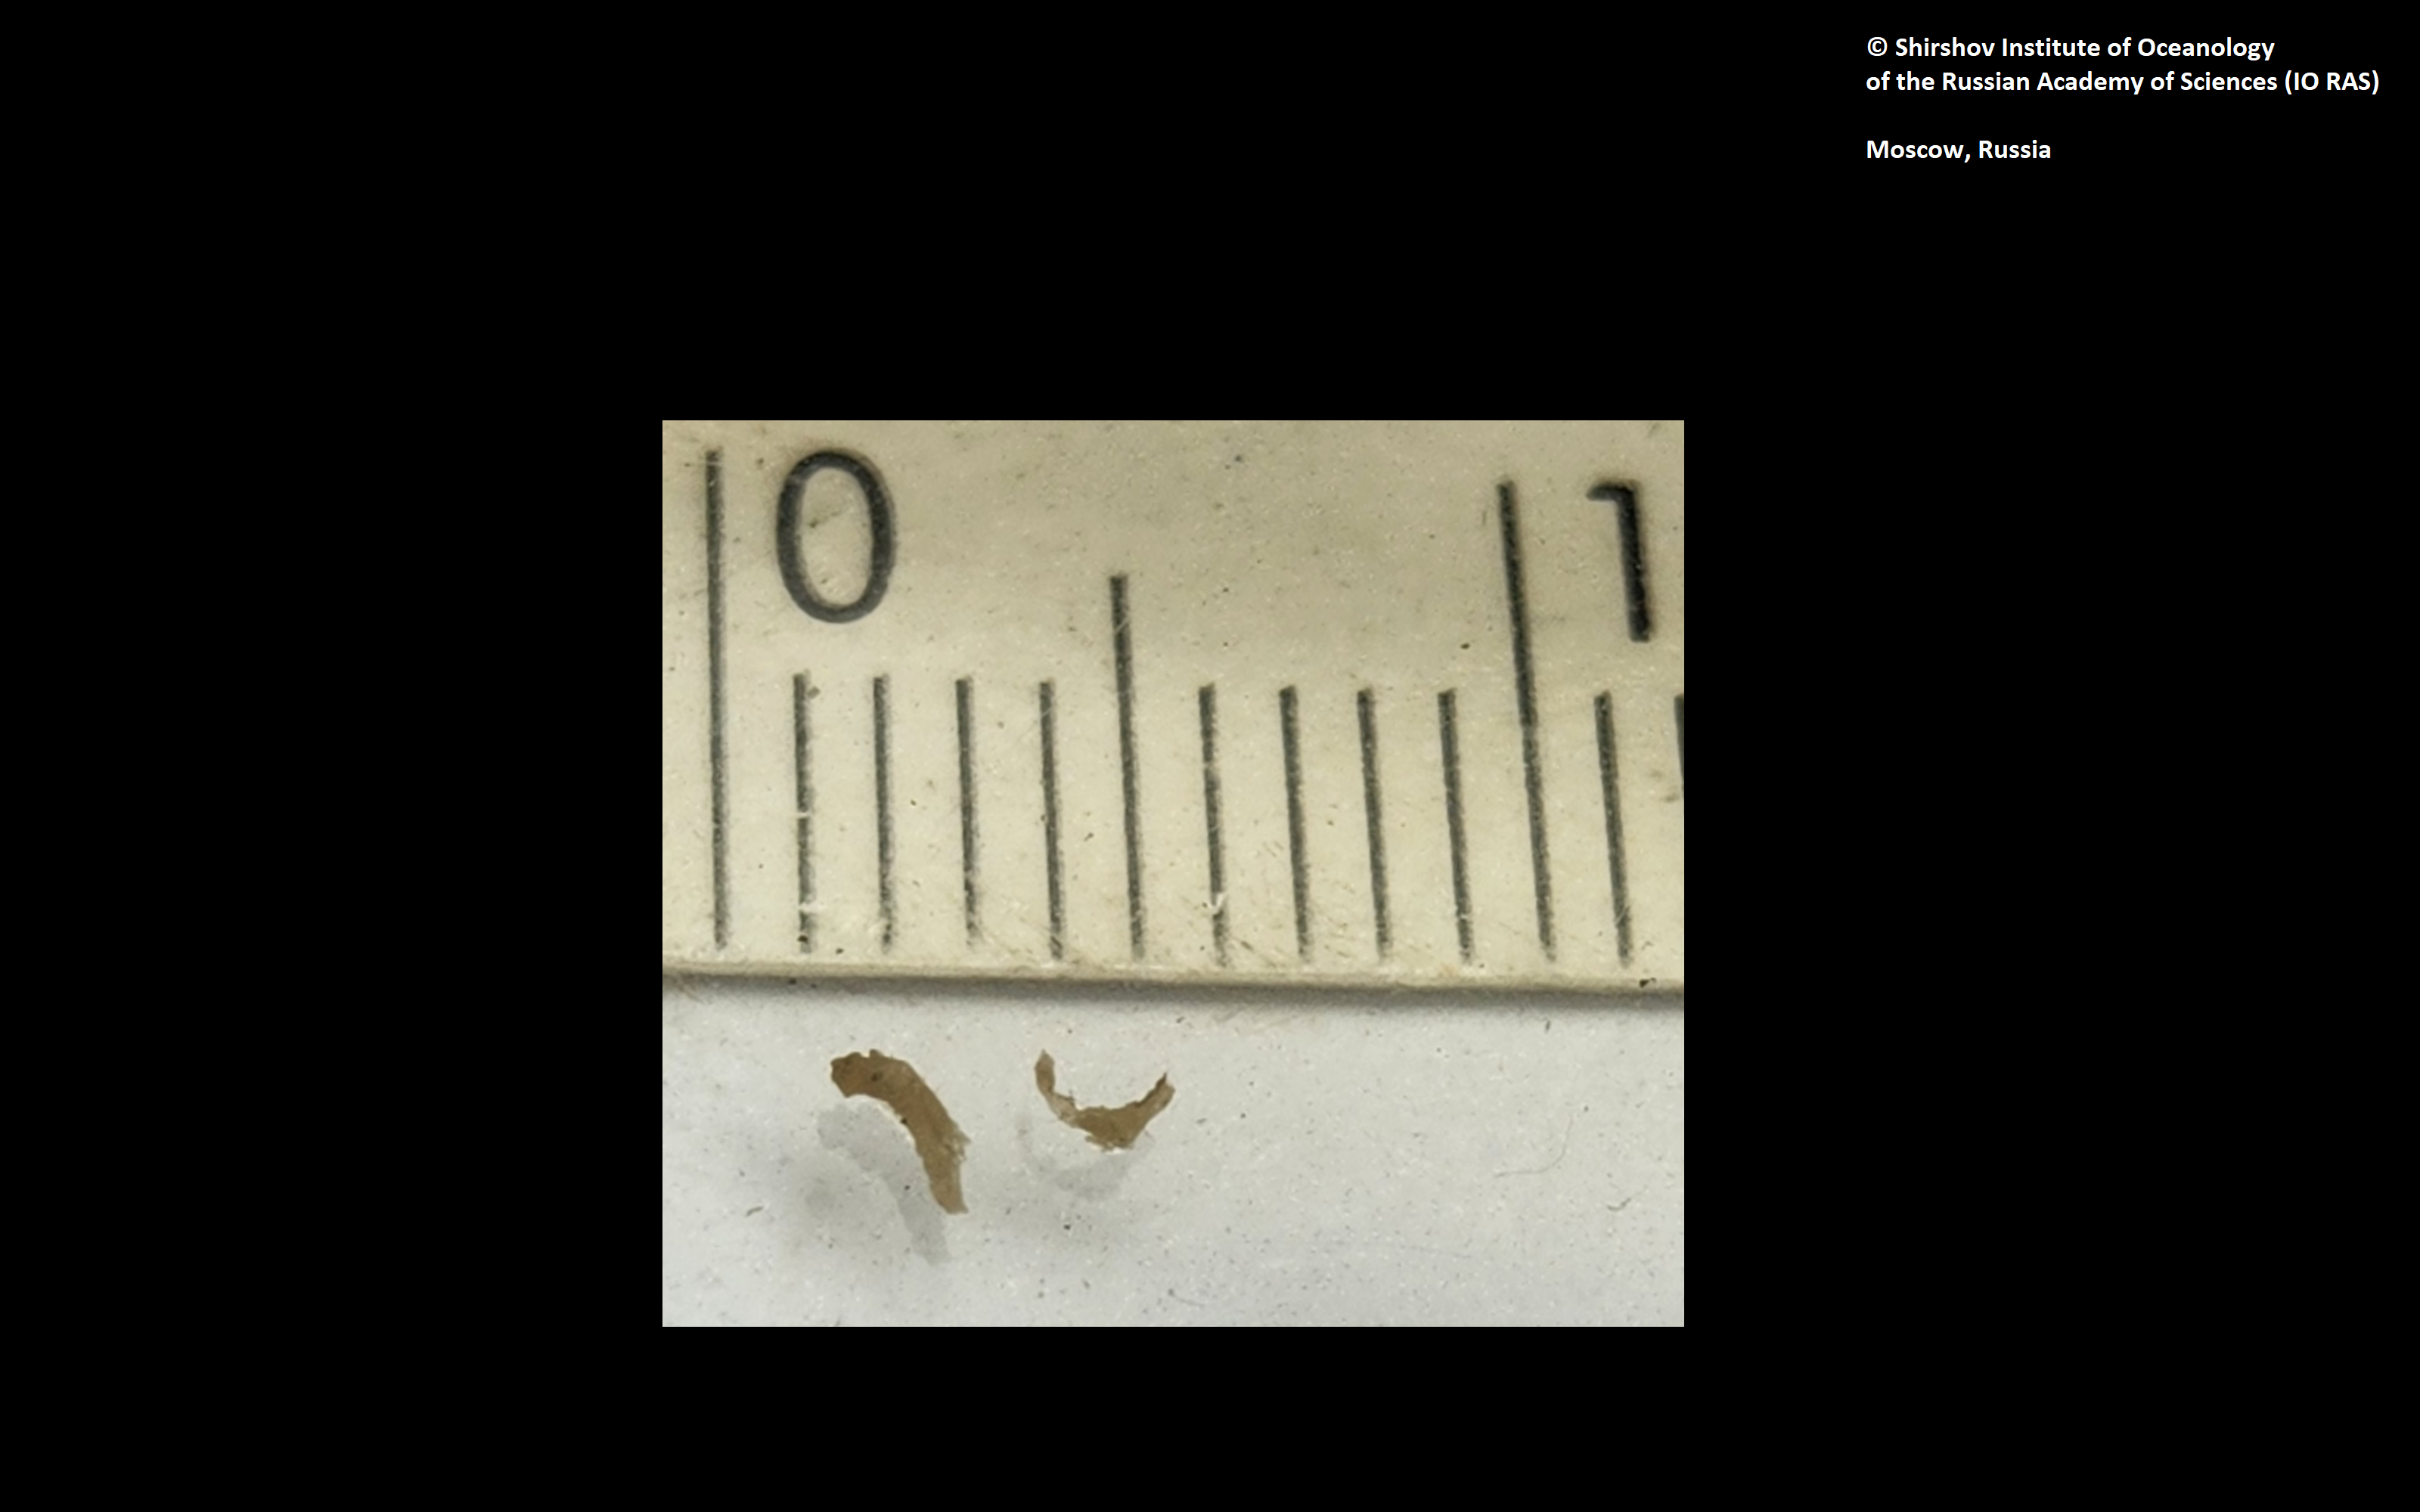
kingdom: Animalia
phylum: Annelida
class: Polychaeta
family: Ampharetidae
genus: Lysippe
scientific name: Lysippe nikiti
